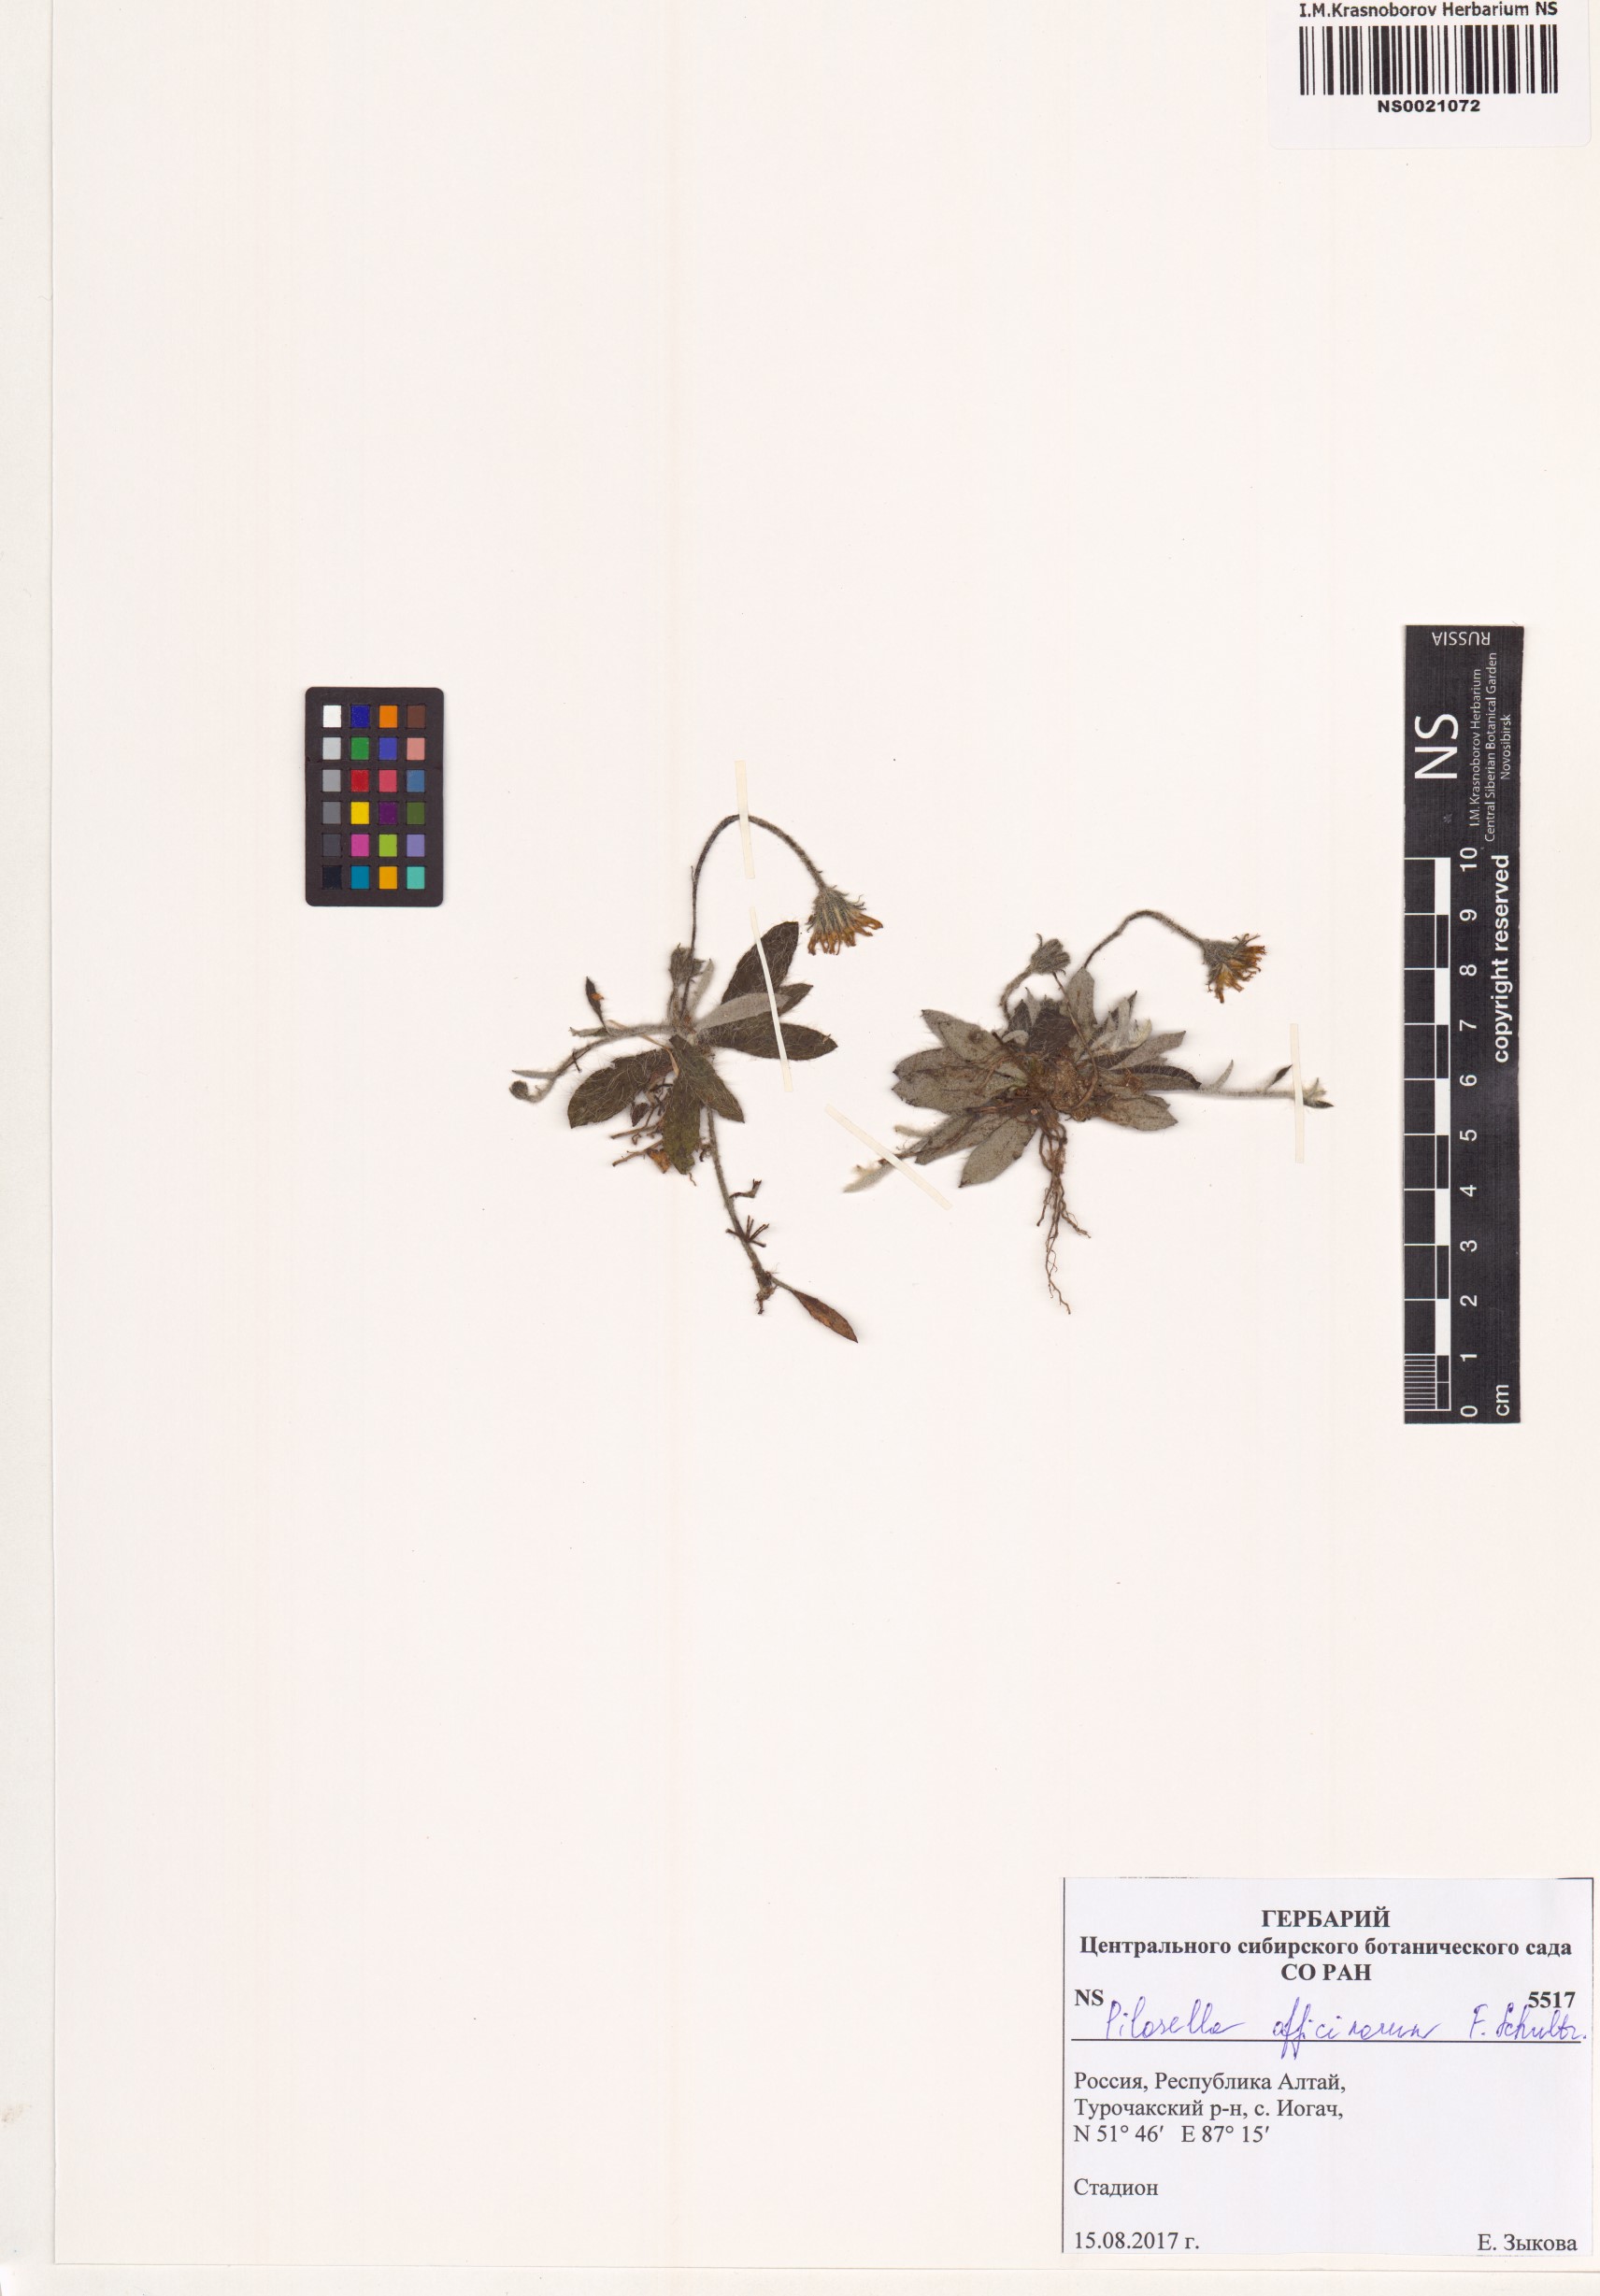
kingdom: Plantae
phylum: Tracheophyta
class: Magnoliopsida
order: Asterales
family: Asteraceae
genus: Pilosella
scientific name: Pilosella officinarum
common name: Mouse-ear hawkweed
